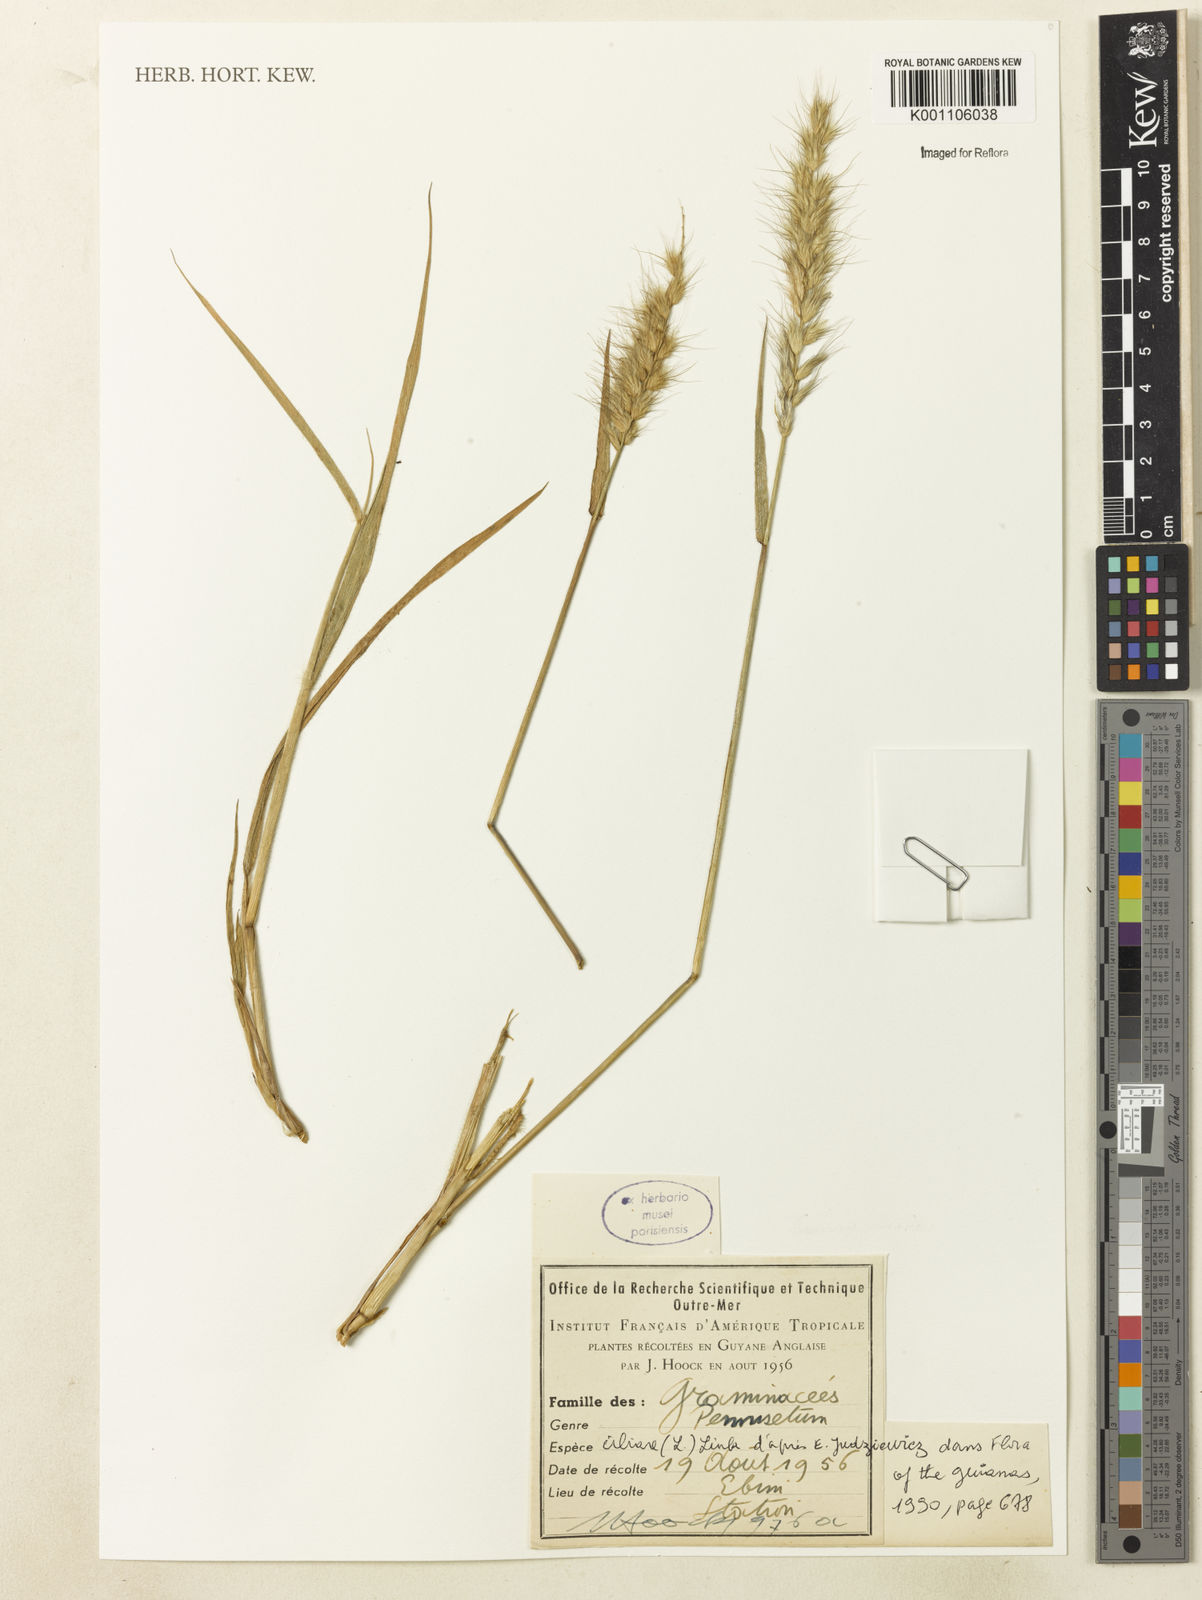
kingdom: Plantae
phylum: Tracheophyta
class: Liliopsida
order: Poales
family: Poaceae
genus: Cenchrus
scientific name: Cenchrus pedicellatus
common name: Hairy fountain grass
